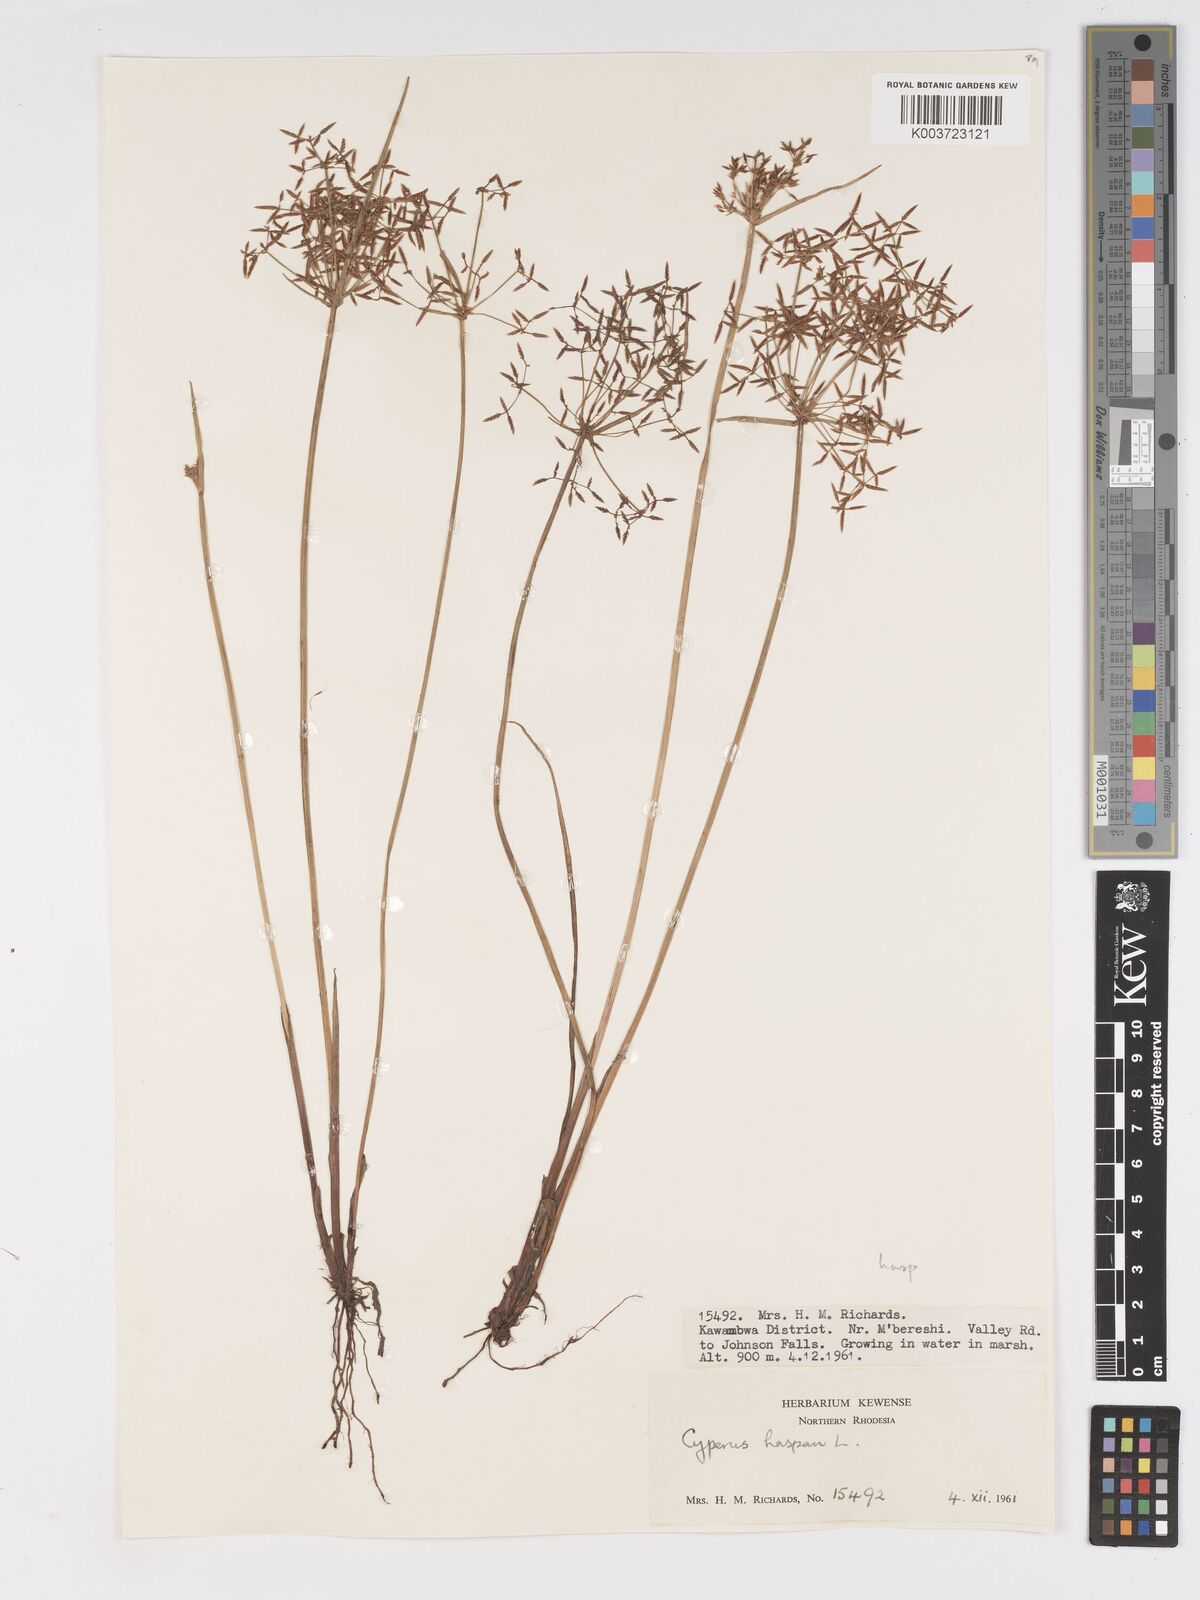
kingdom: Plantae
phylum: Tracheophyta
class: Liliopsida
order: Poales
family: Cyperaceae
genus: Cyperus
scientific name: Cyperus haspan
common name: Haspan flatsedge
